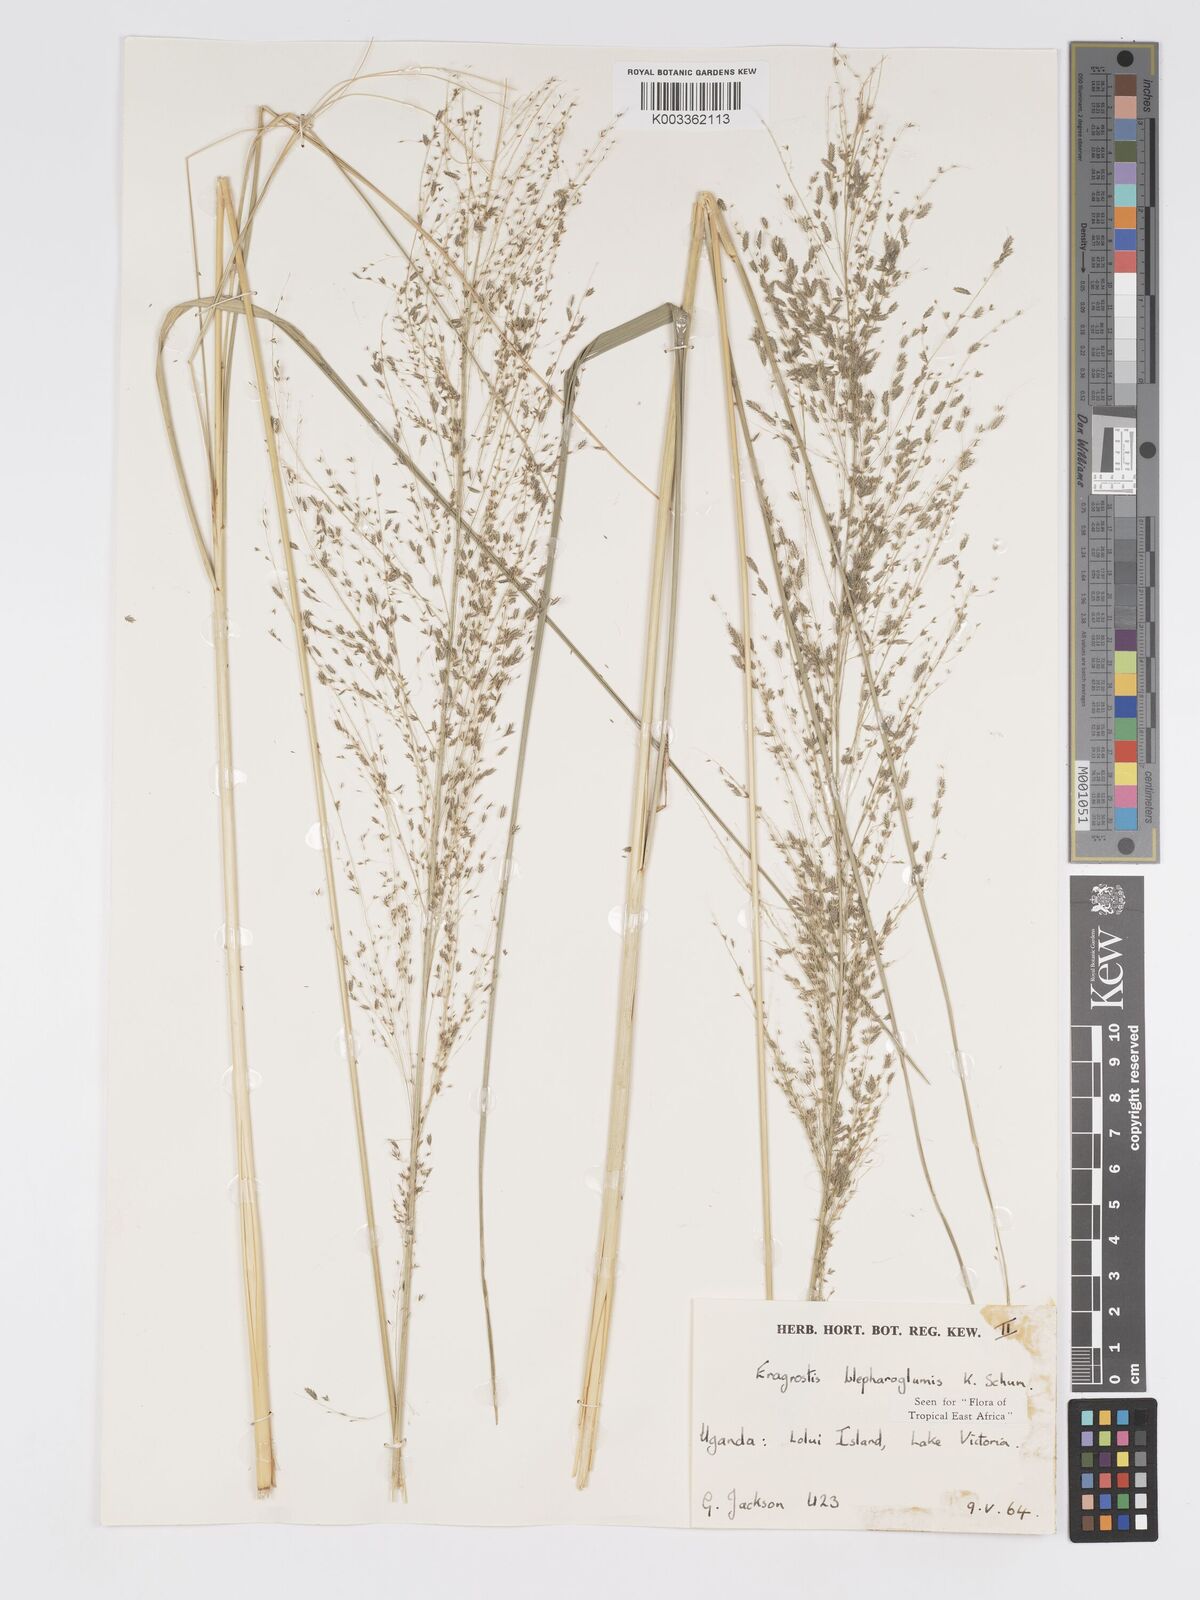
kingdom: Plantae
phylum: Tracheophyta
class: Liliopsida
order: Poales
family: Poaceae
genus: Eragrostis
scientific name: Eragrostis olivacea
